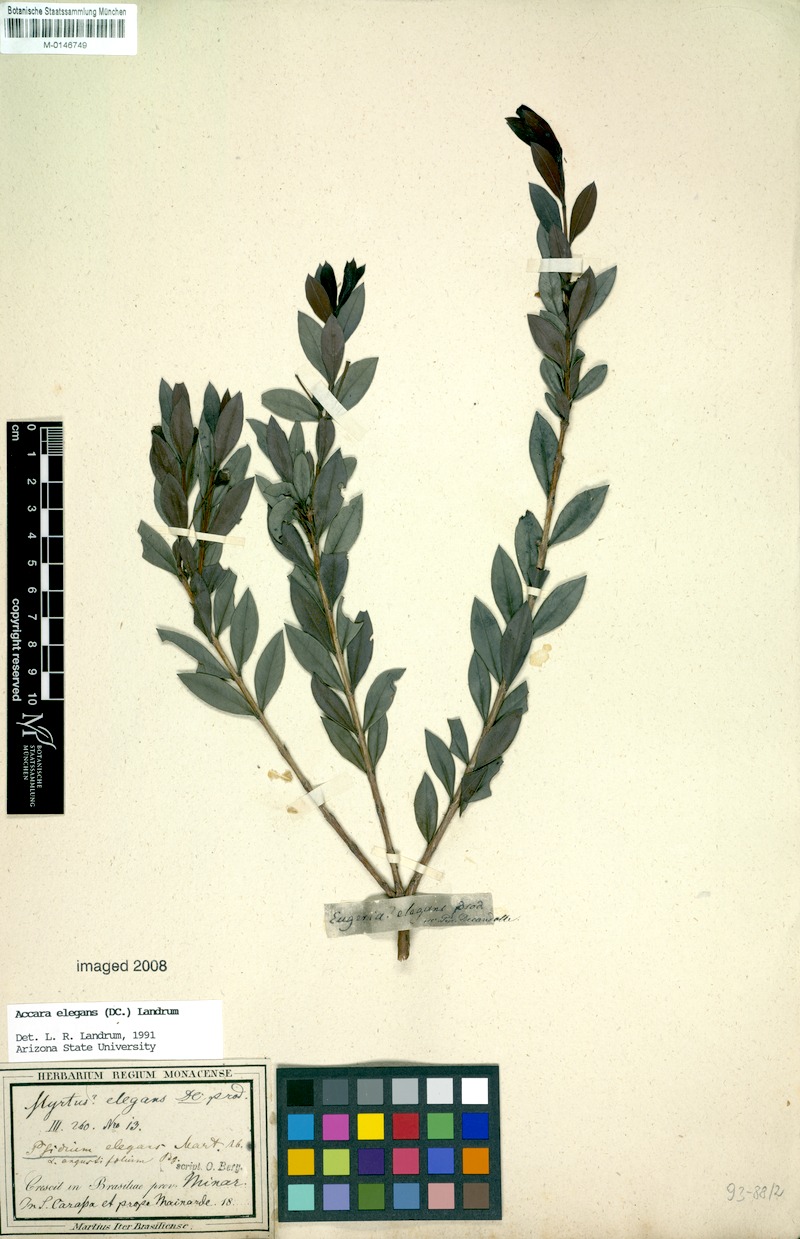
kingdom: Plantae
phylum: Tracheophyta
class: Magnoliopsida
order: Myrtales
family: Myrtaceae
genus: Accara
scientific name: Accara elegans
